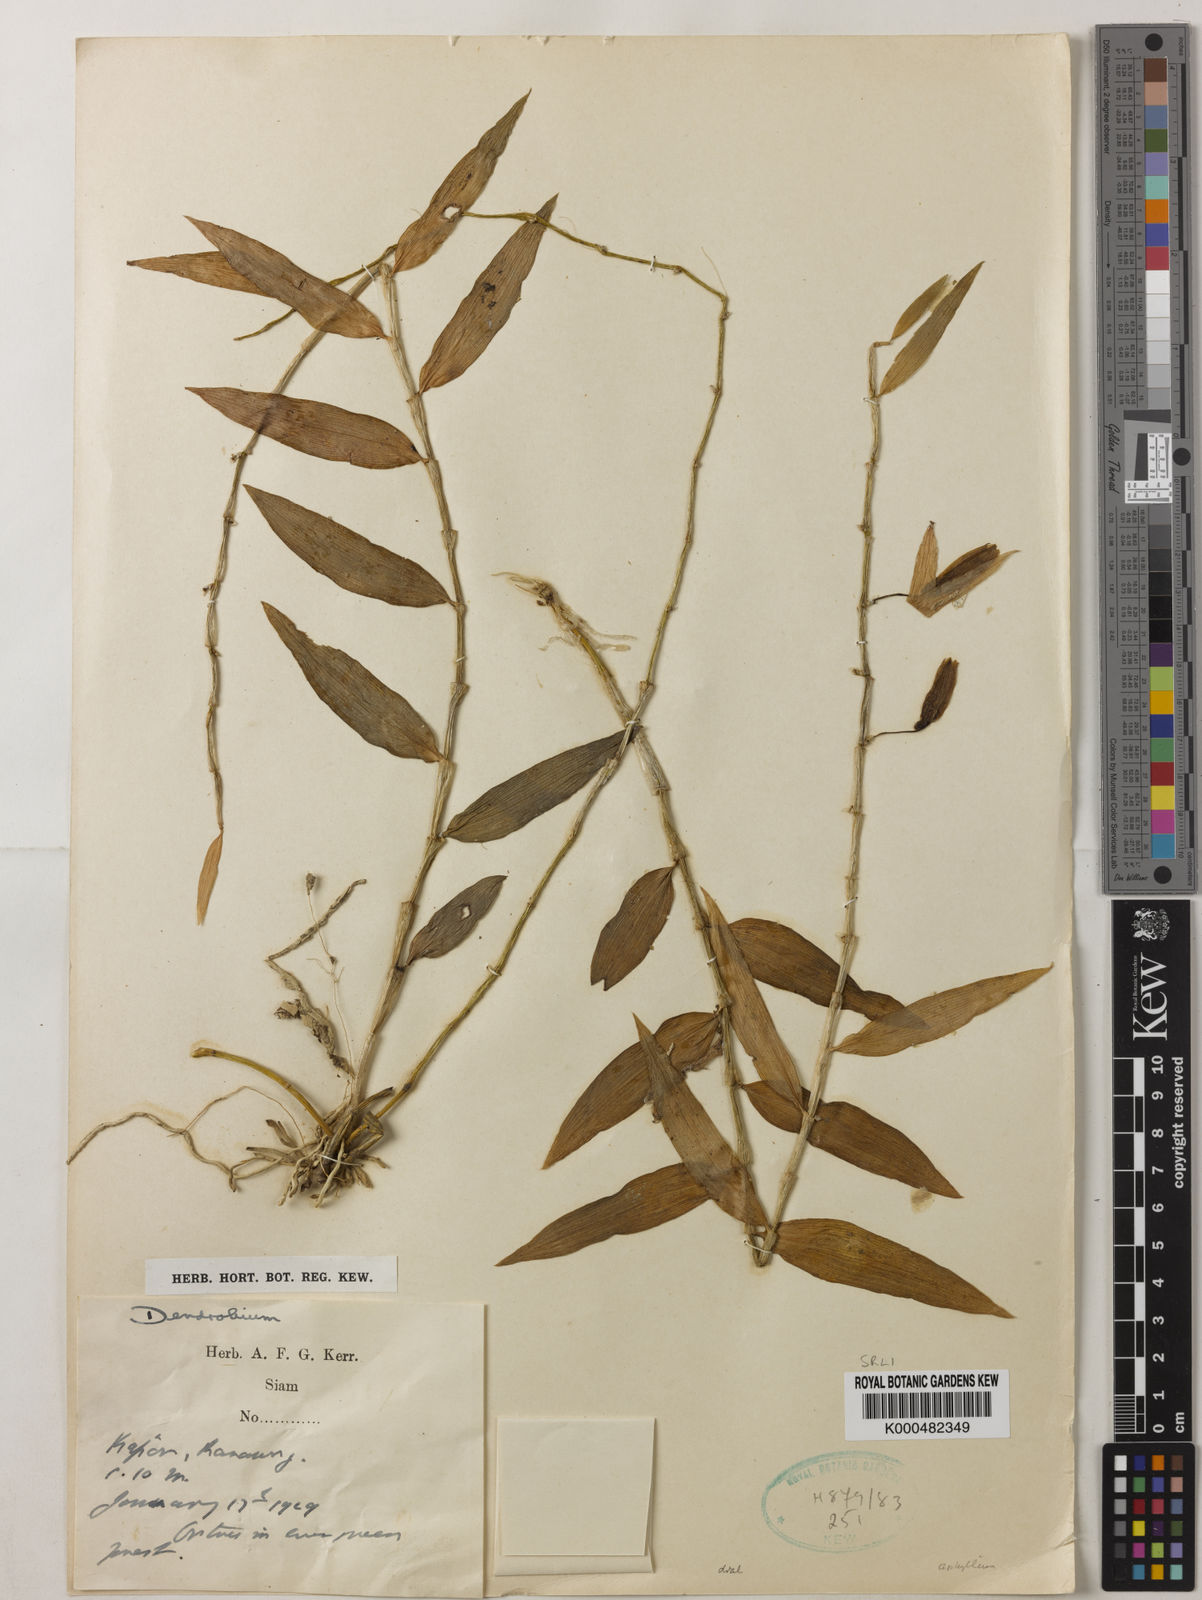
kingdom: Plantae
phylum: Tracheophyta
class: Liliopsida
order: Asparagales
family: Orchidaceae
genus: Dendrobium
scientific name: Dendrobium macrostachyum
